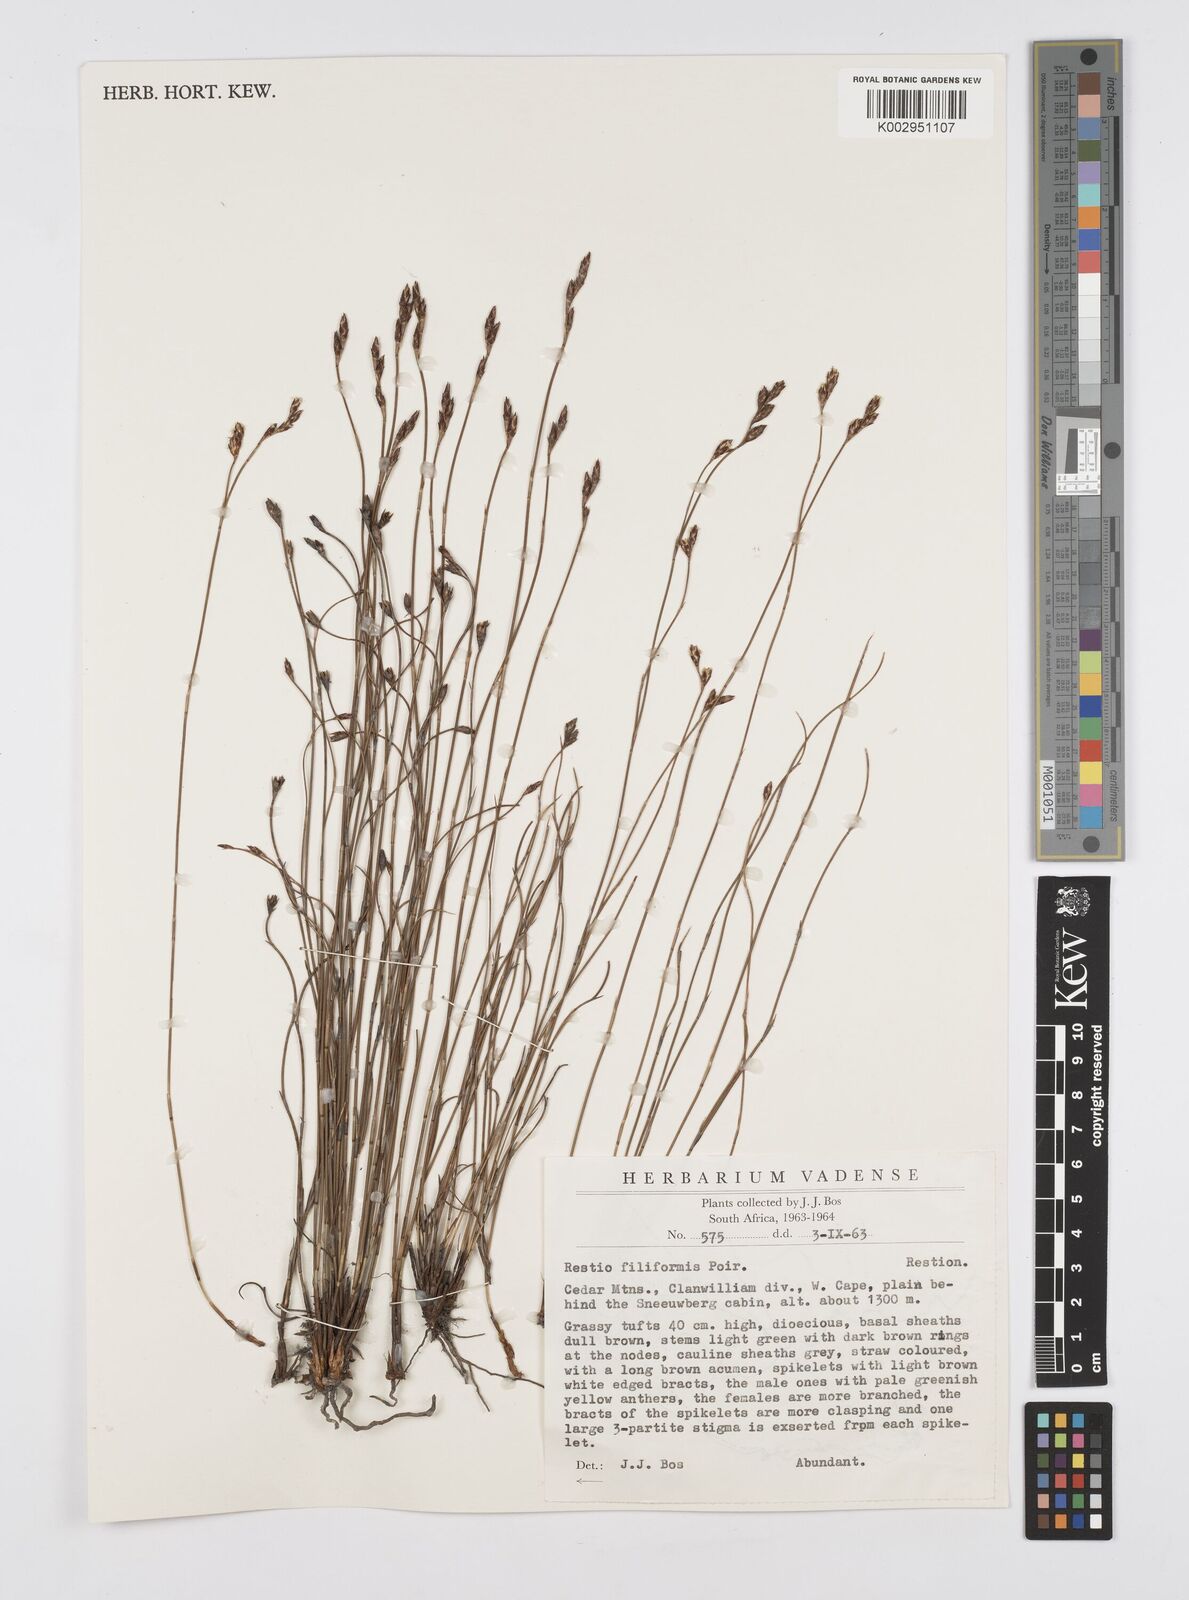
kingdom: Plantae
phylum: Tracheophyta
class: Liliopsida
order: Poales
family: Restionaceae
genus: Restio
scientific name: Restio filiformis
